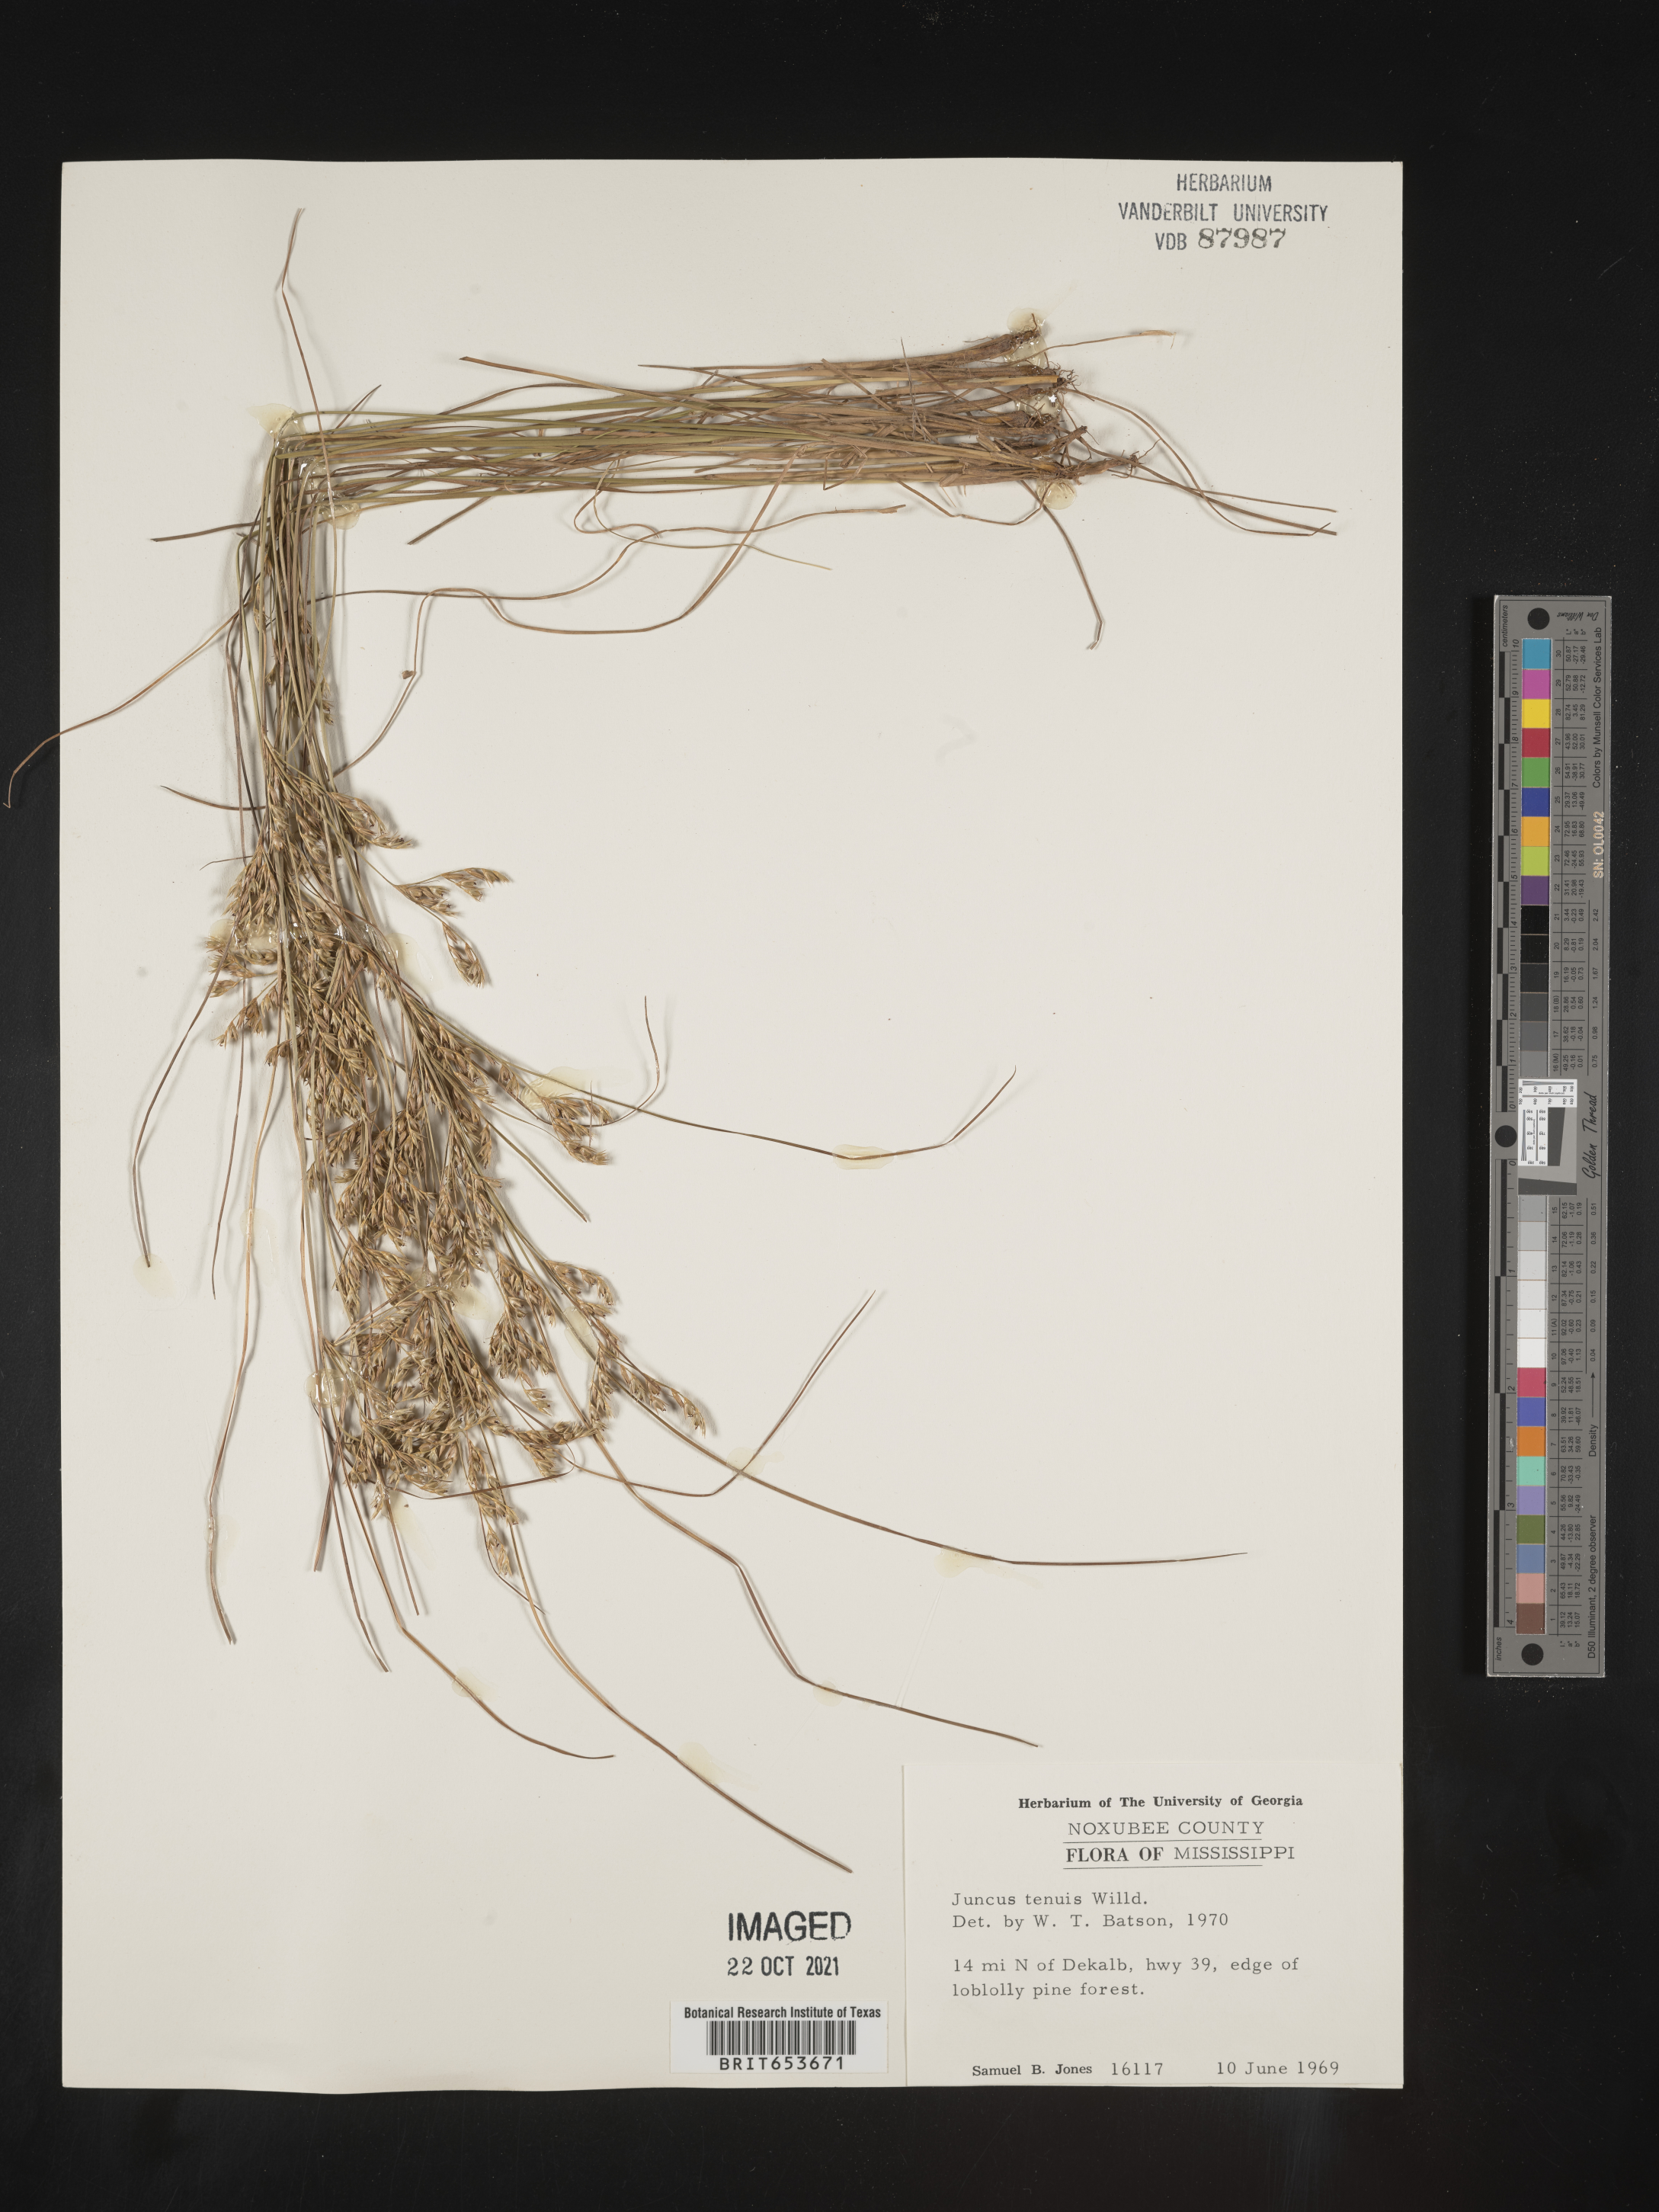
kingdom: Plantae
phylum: Tracheophyta
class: Liliopsida
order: Poales
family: Juncaceae
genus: Juncus
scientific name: Juncus tenuis
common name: Slender rush
